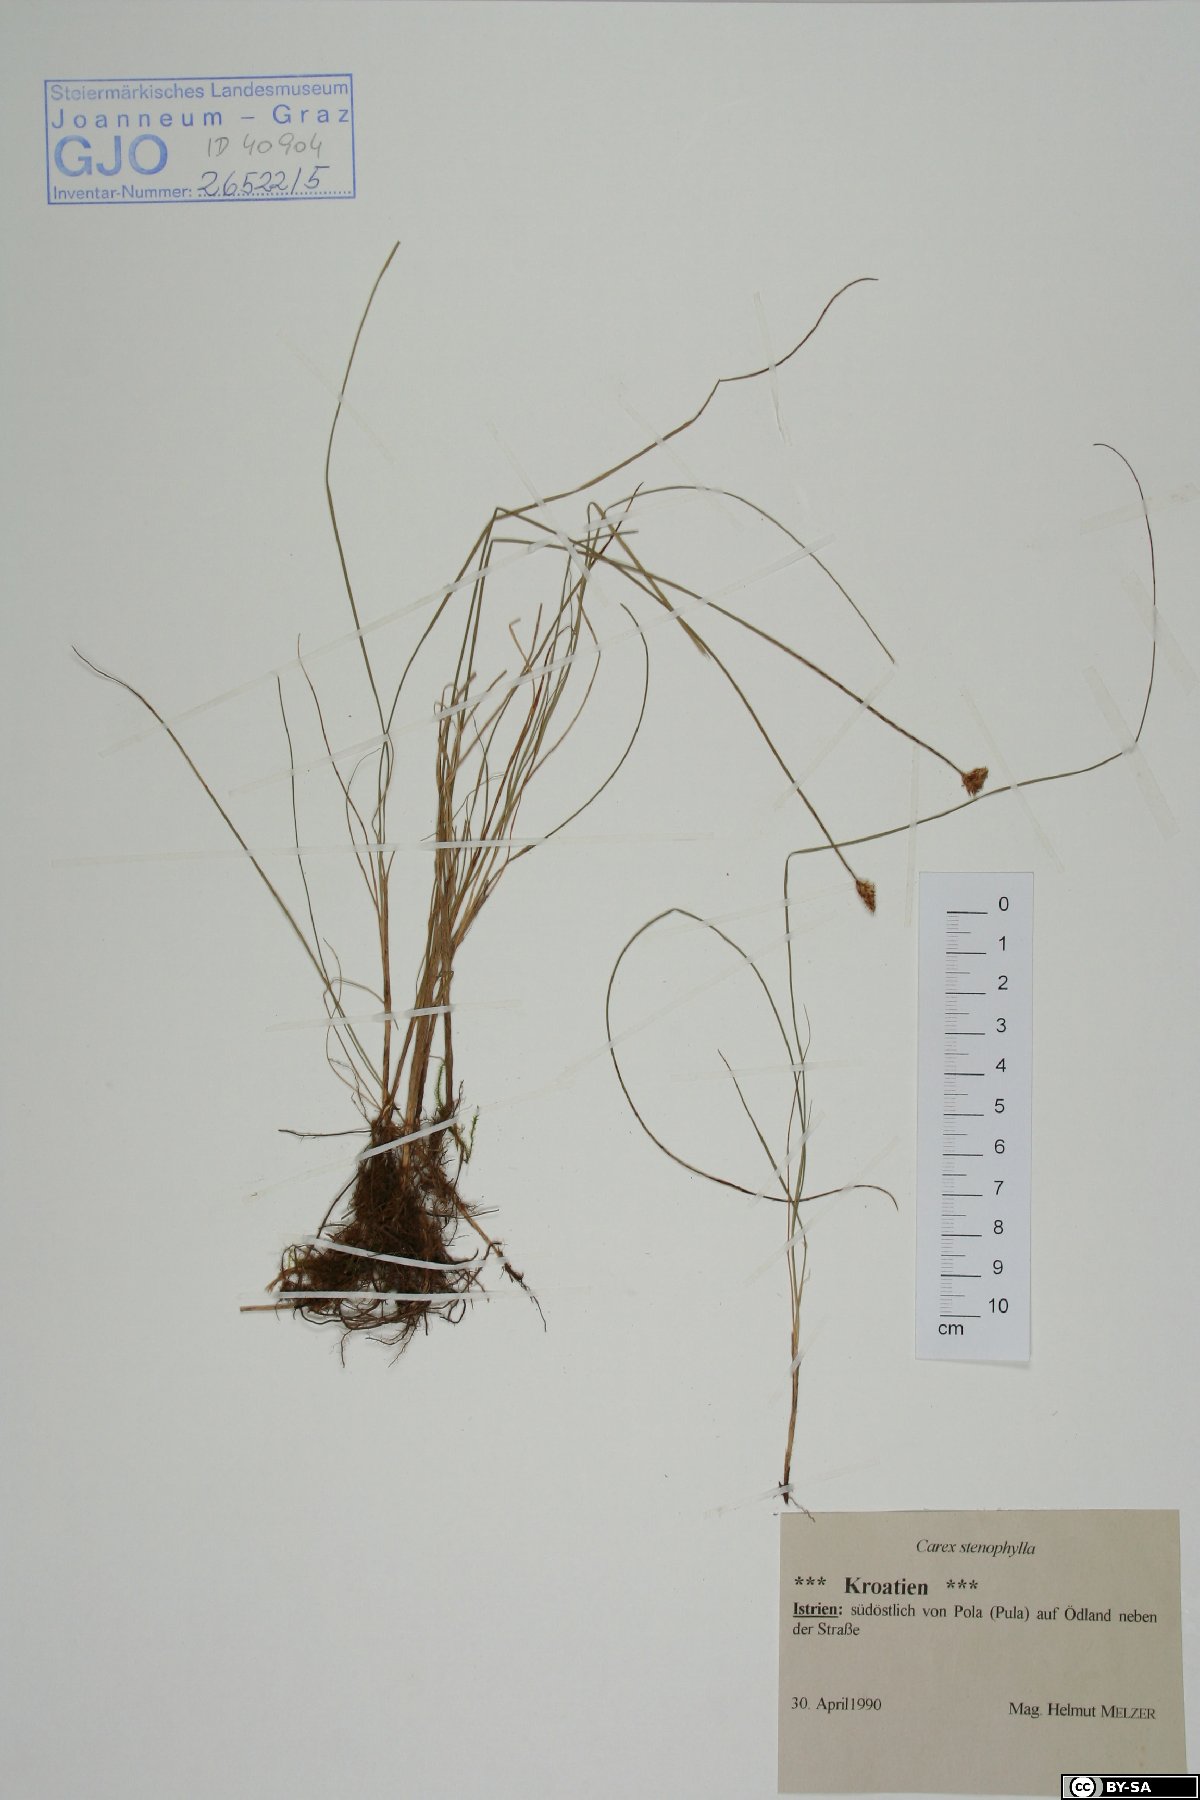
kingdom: Plantae
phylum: Tracheophyta
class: Liliopsida
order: Poales
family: Cyperaceae
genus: Carex
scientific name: Carex stenophylla
